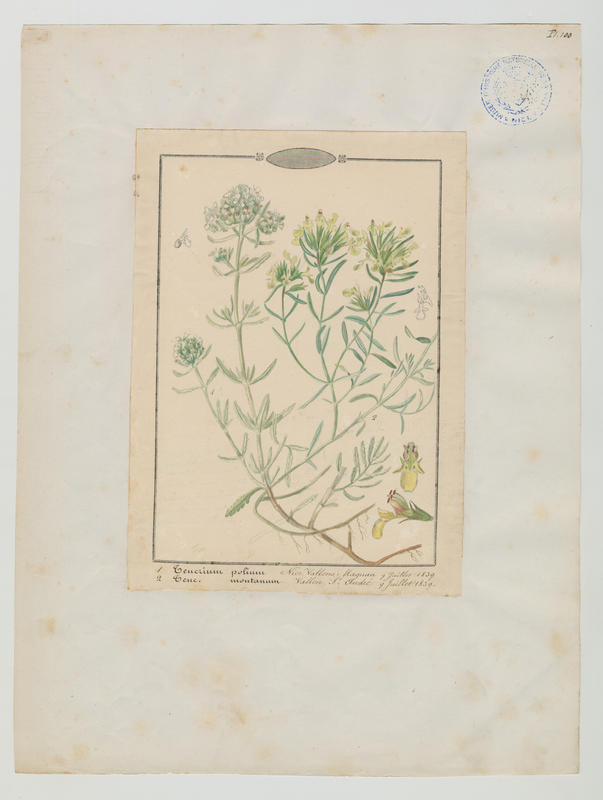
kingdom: Plantae
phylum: Tracheophyta
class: Magnoliopsida
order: Lamiales
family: Lamiaceae
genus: Teucrium
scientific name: Teucrium montanum
